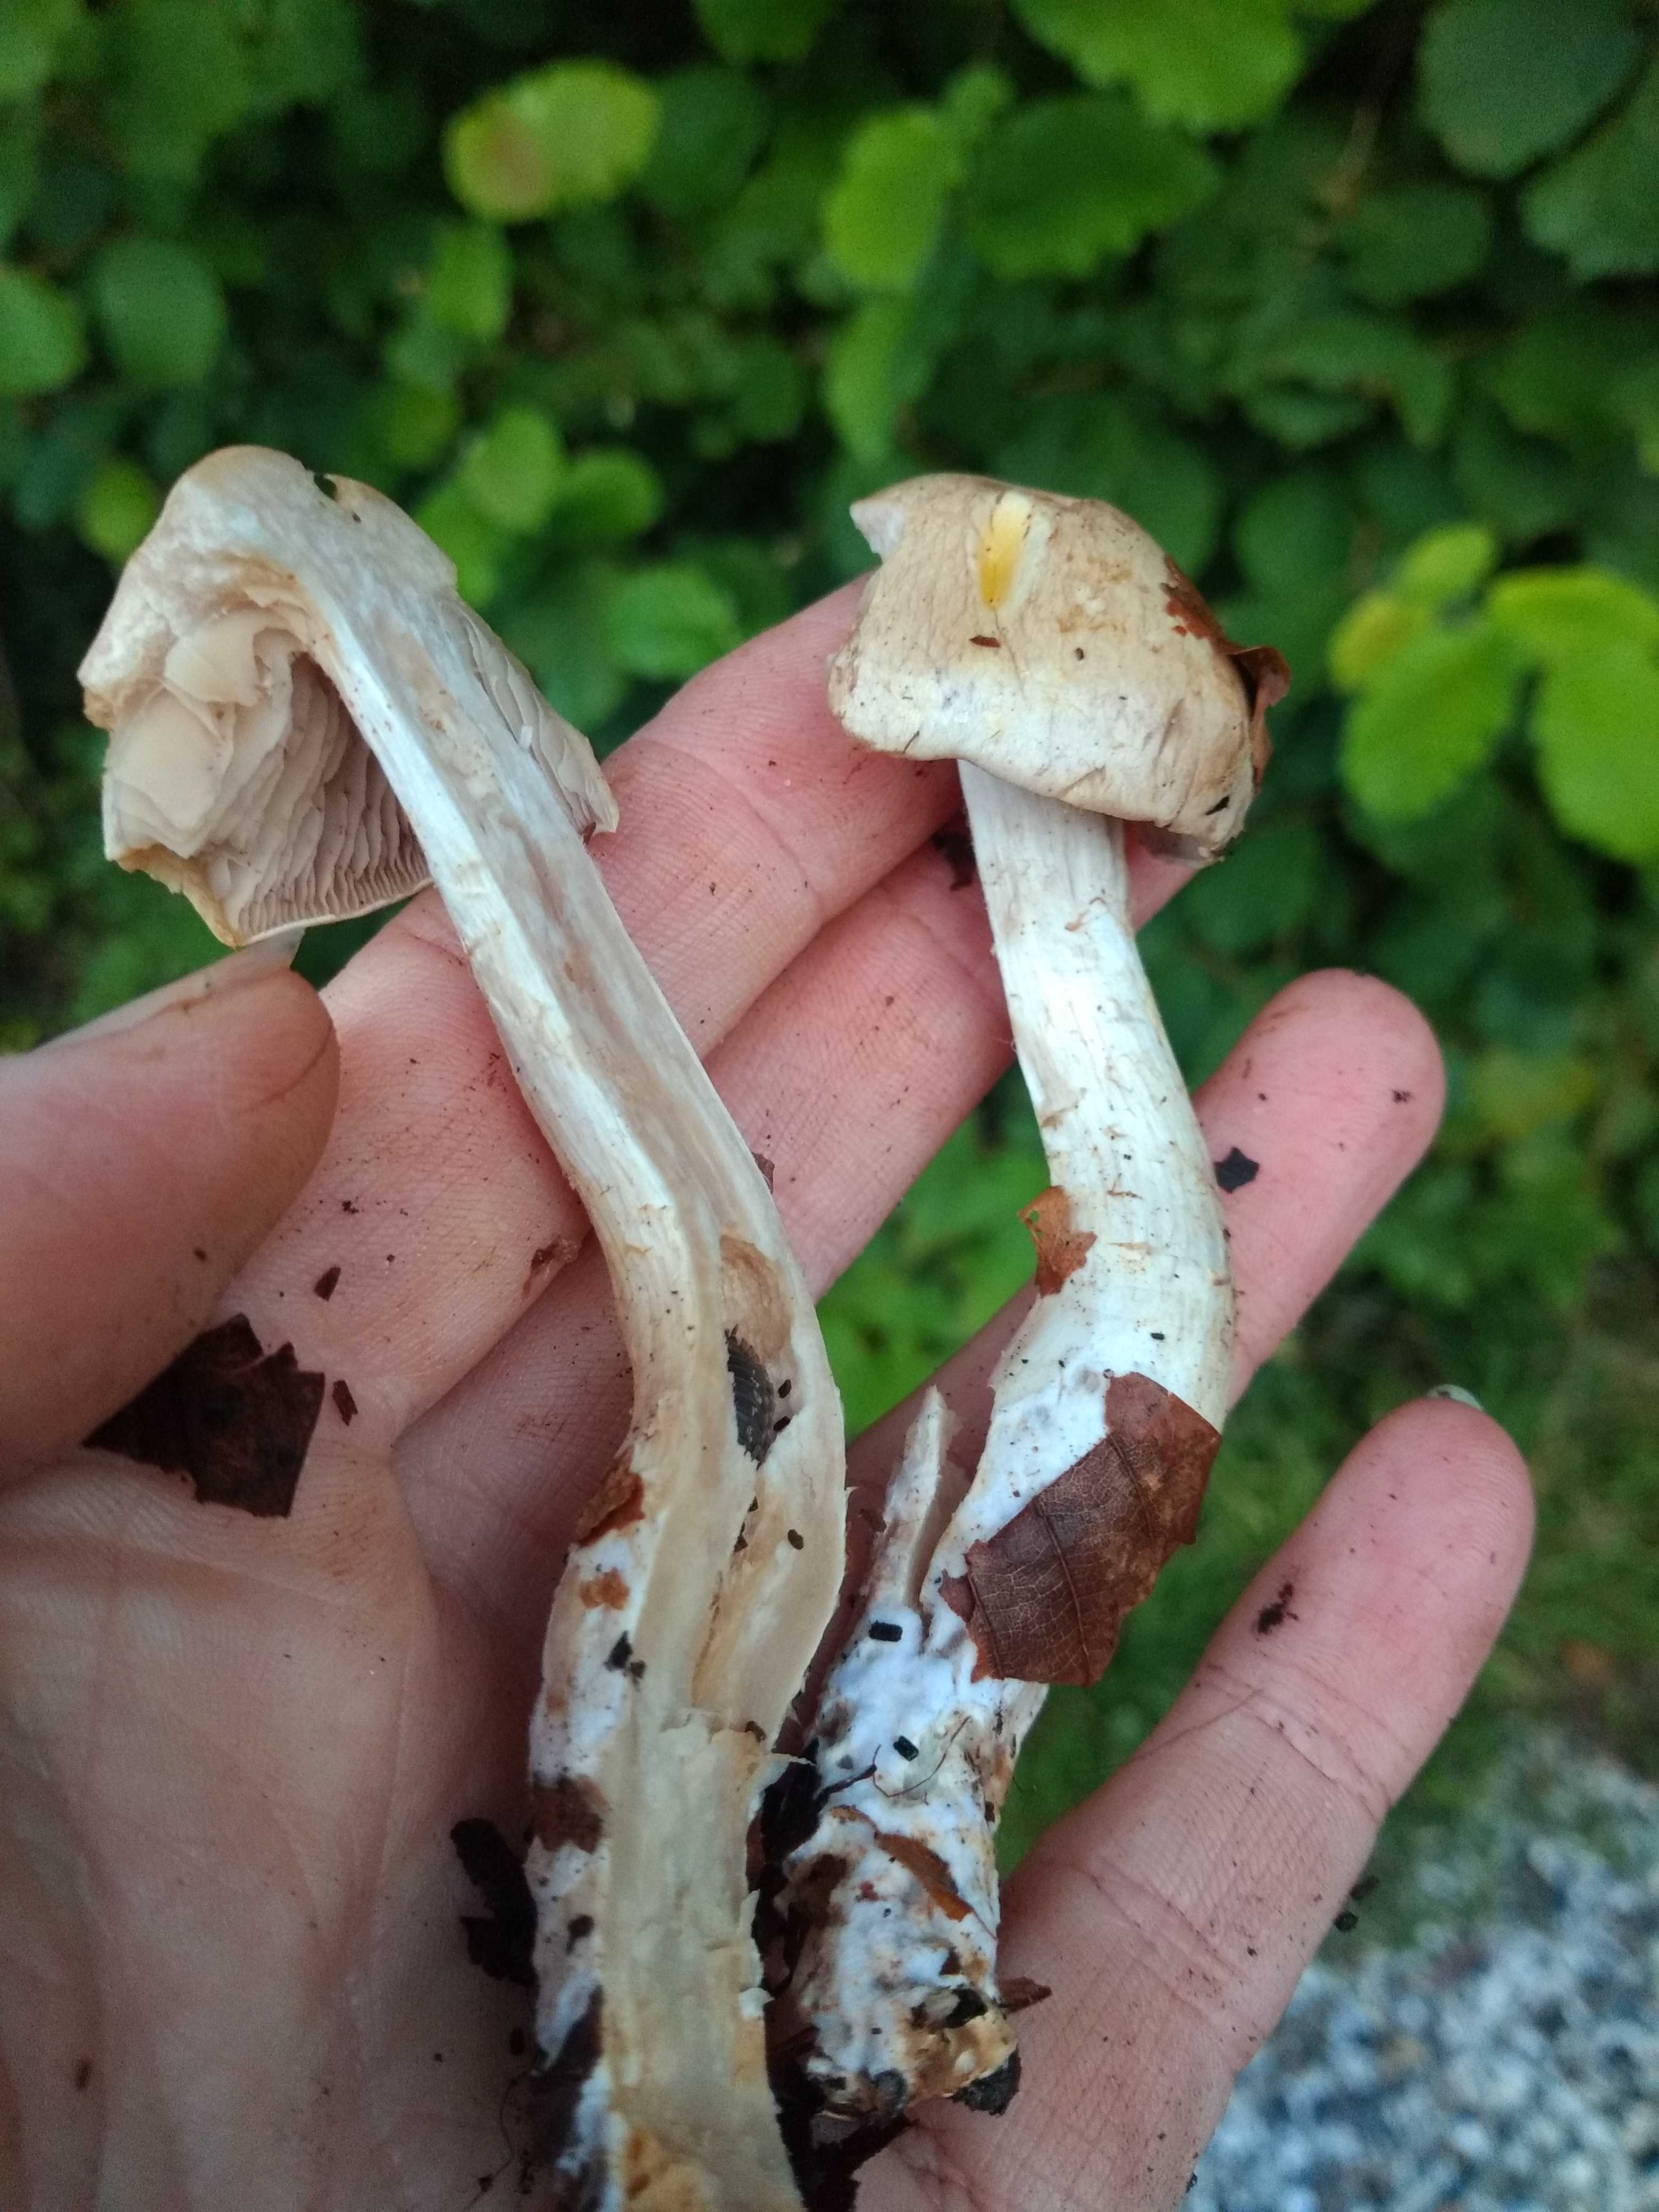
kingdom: Fungi
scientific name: Fungi
